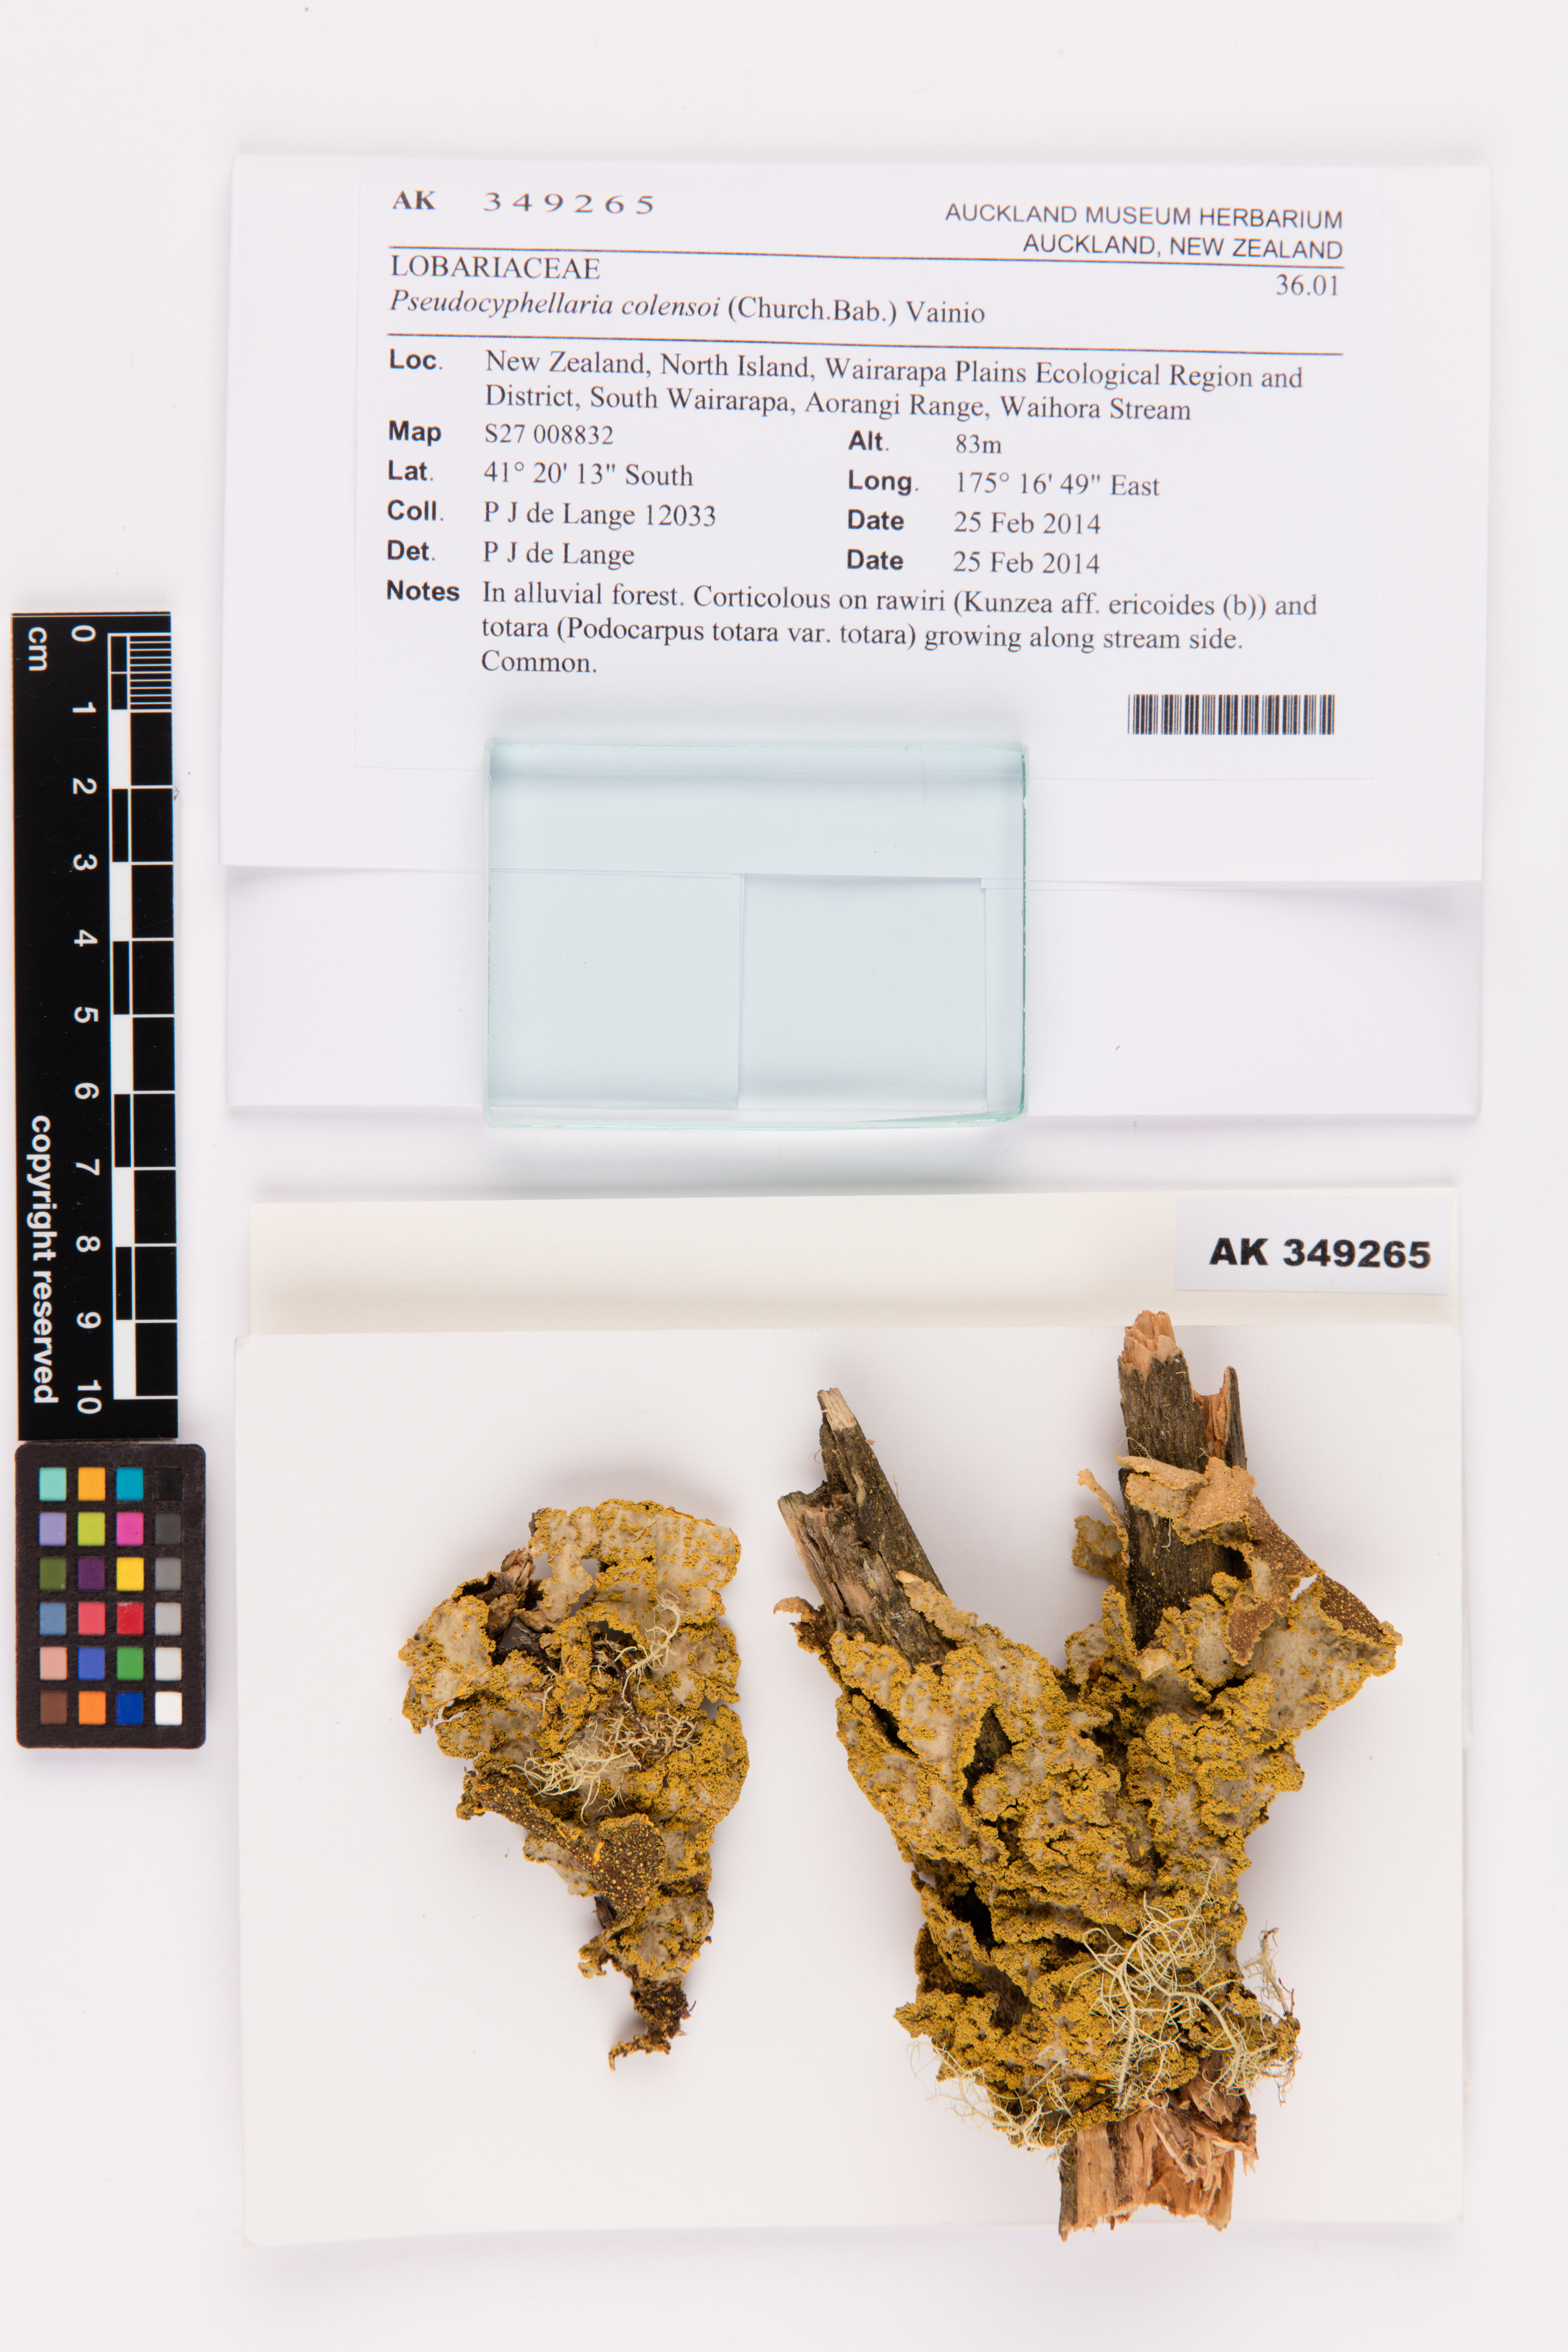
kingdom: Fungi
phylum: Ascomycota
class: Lecanoromycetes
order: Peltigerales
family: Lobariaceae
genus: Yarrumia
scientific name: Yarrumia colensoi
